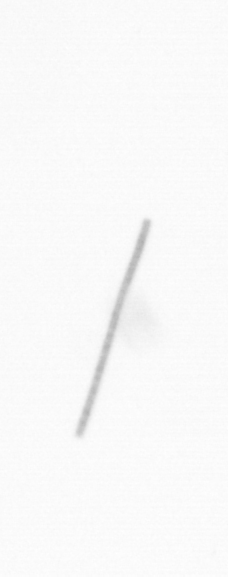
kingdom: Chromista
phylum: Ochrophyta
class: Bacillariophyceae
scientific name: Bacillariophyceae
